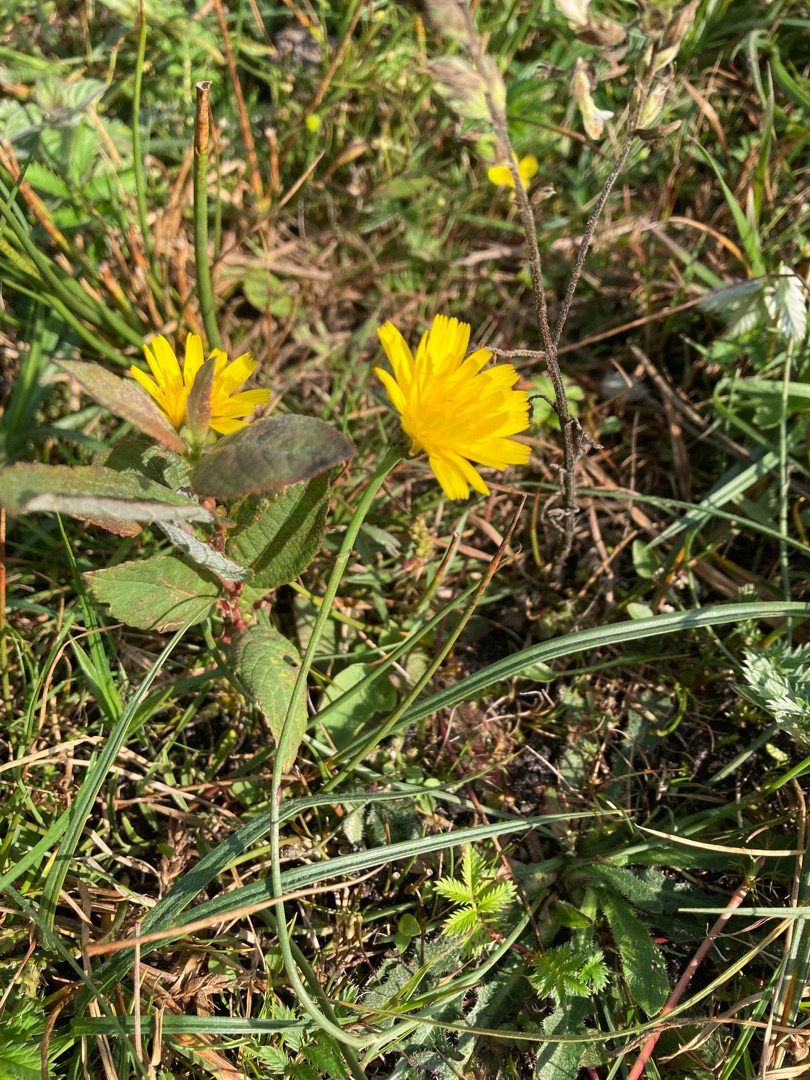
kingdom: Plantae
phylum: Tracheophyta
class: Magnoliopsida
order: Asterales
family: Asteraceae
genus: Hypochaeris
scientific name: Hypochaeris radicata
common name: Almindelig kongepen
